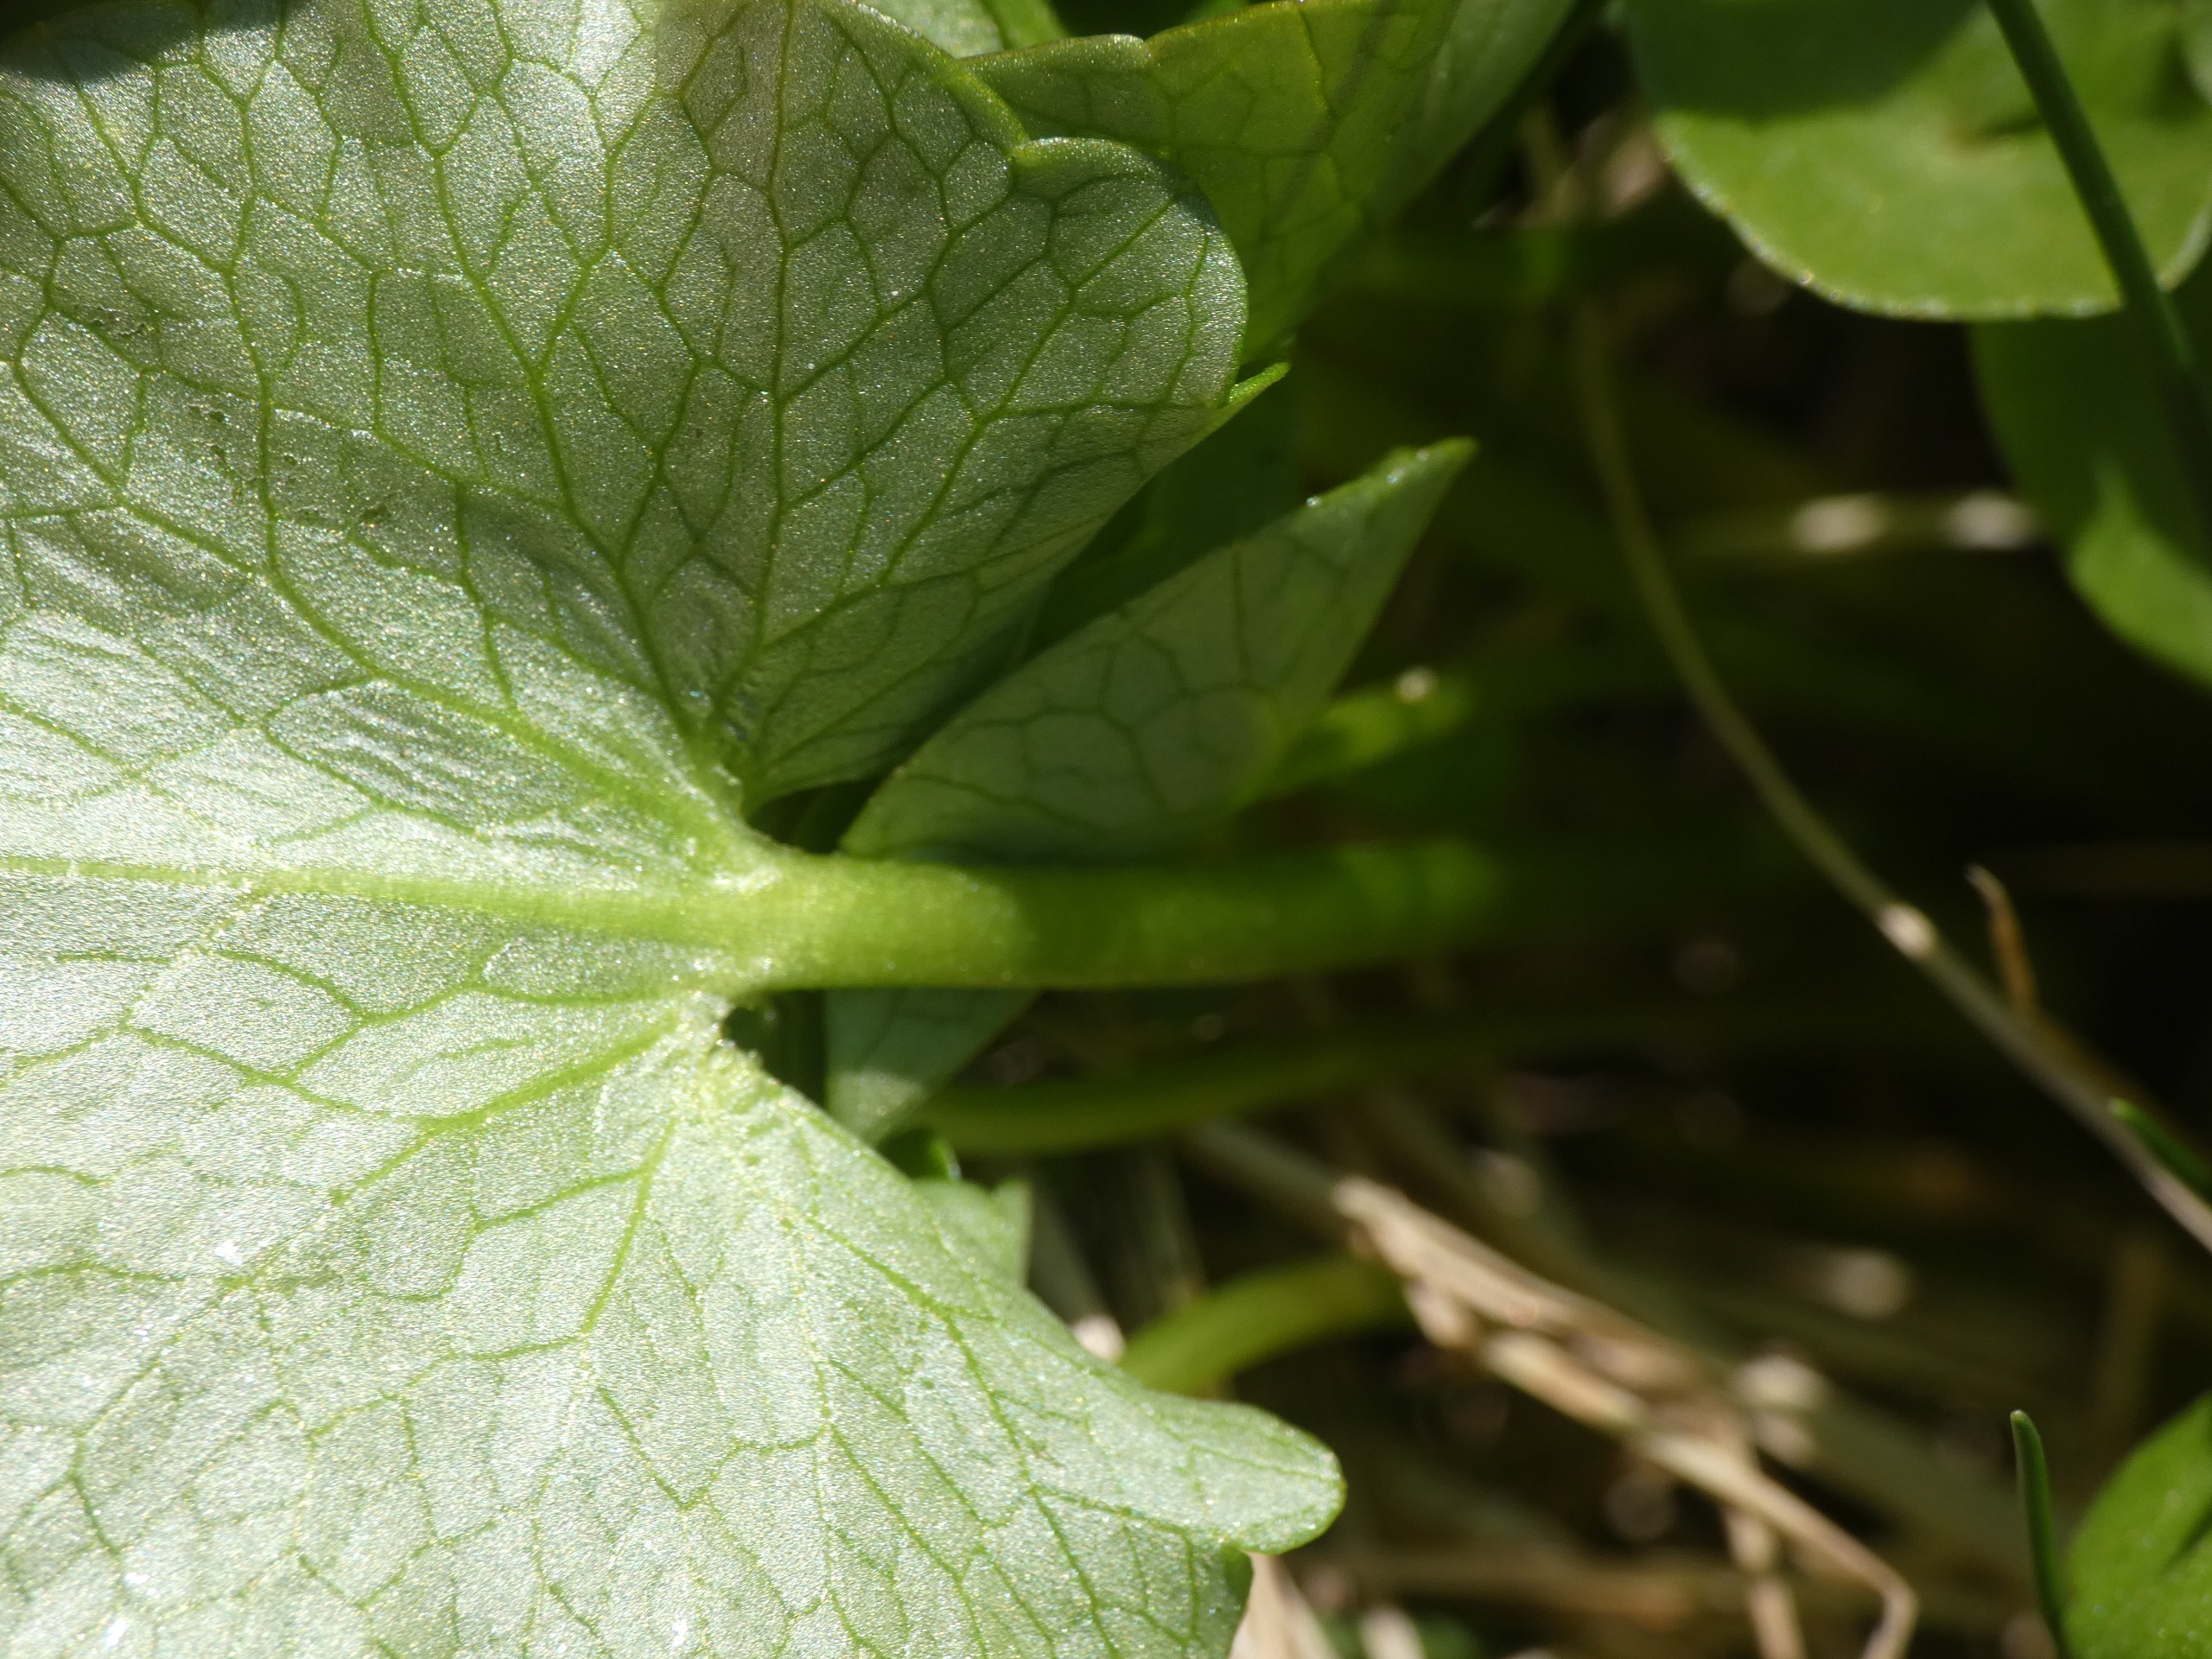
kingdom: Plantae
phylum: Tracheophyta
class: Magnoliopsida
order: Ranunculales
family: Ranunculaceae
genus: Ficaria
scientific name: Ficaria verna
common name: Vorterod
